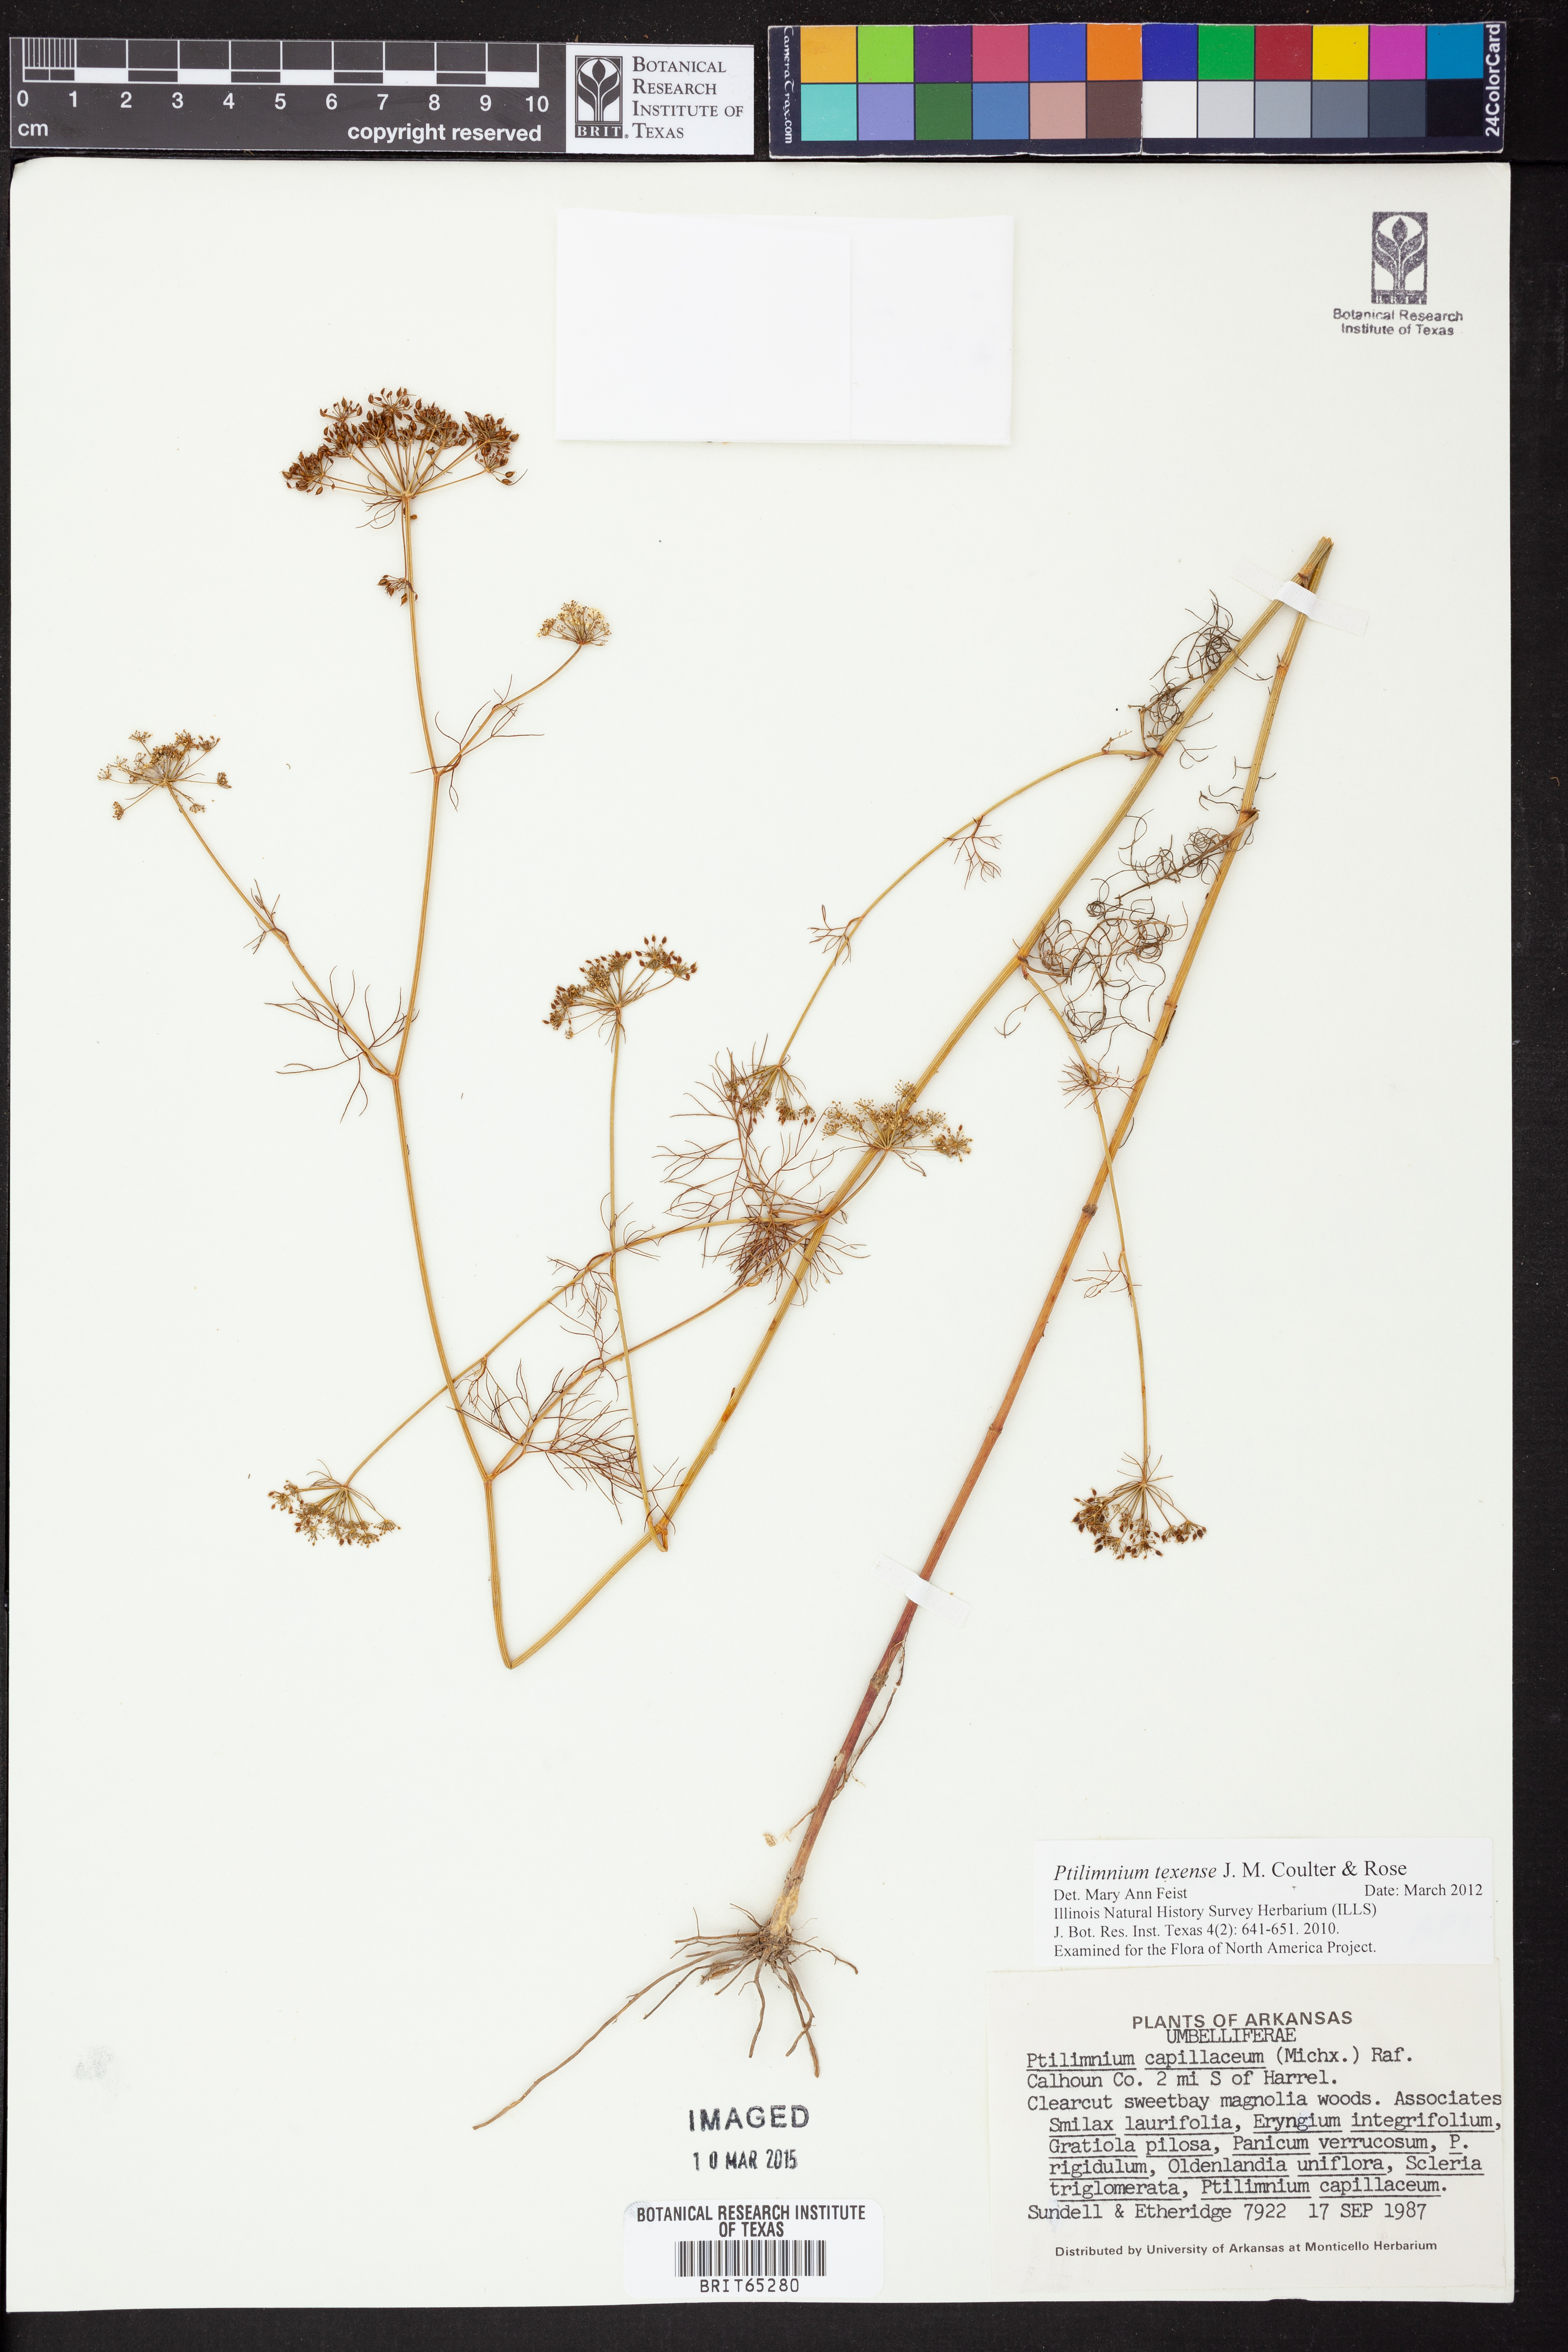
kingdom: Plantae
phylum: Tracheophyta
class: Magnoliopsida
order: Apiales
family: Apiaceae
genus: Ptilimnium
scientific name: Ptilimnium texense
